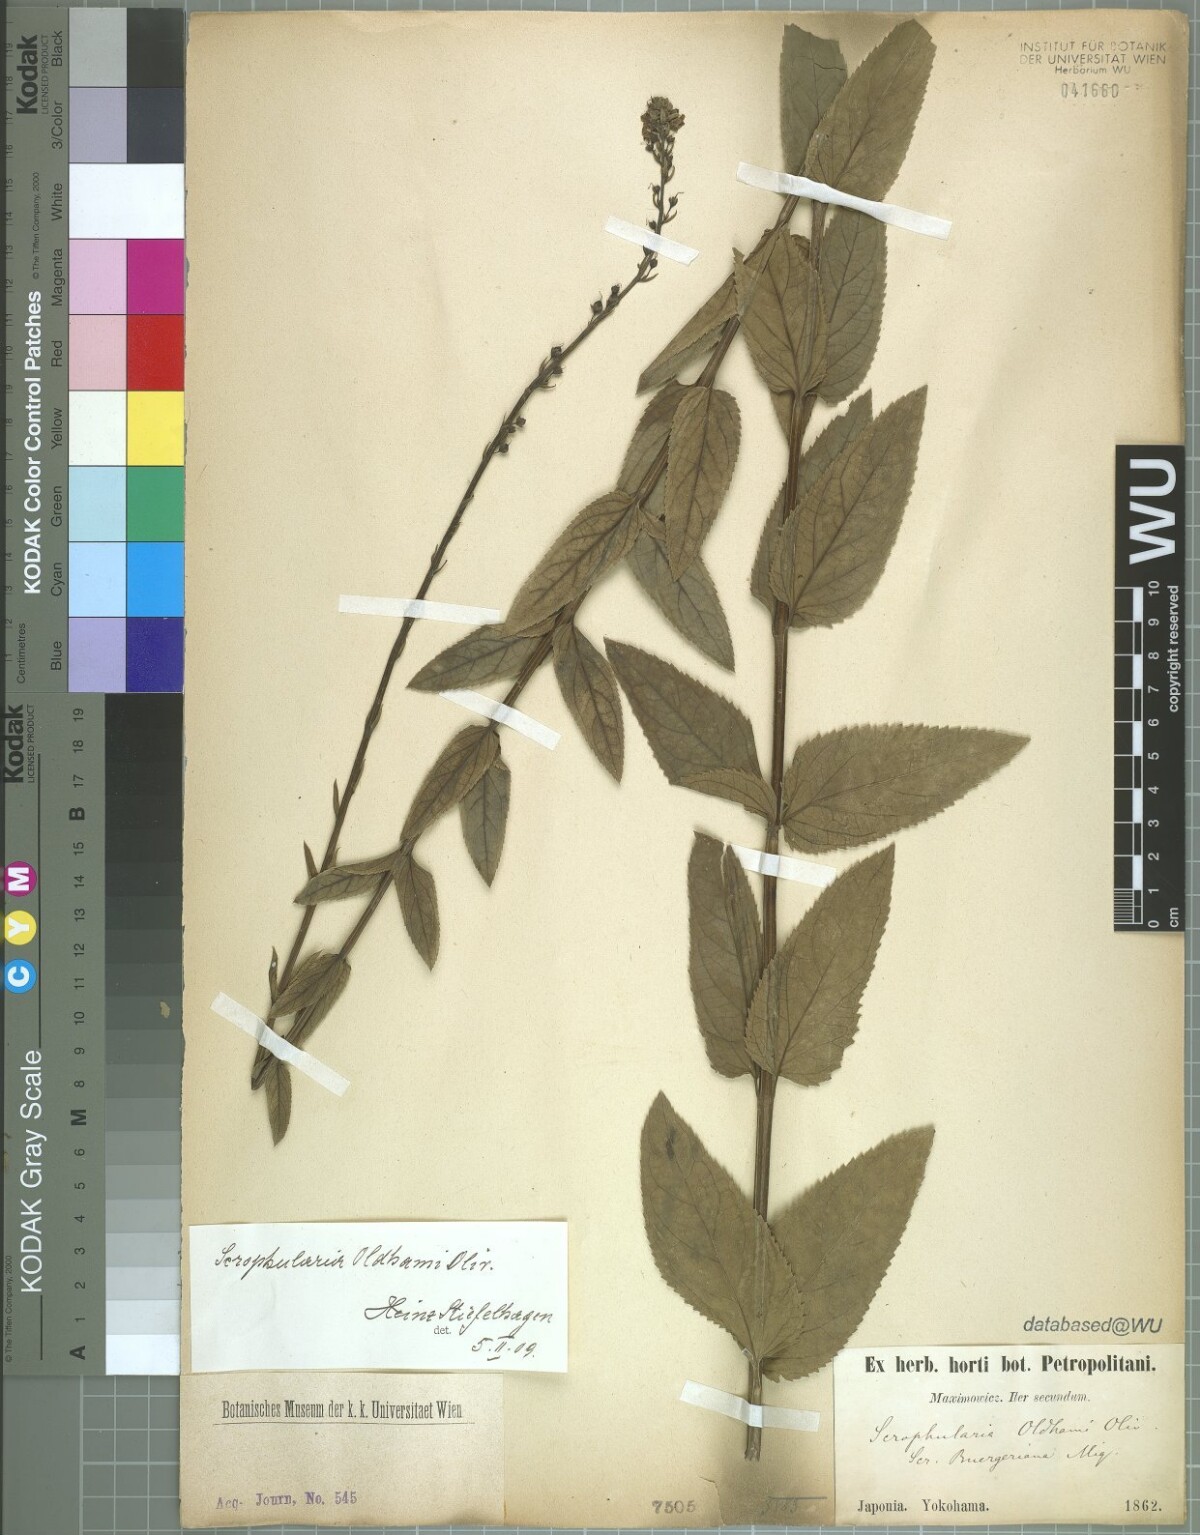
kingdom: Plantae
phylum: Tracheophyta
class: Magnoliopsida
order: Lamiales
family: Scrophulariaceae
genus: Scrophularia
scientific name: Scrophularia buergeriana
